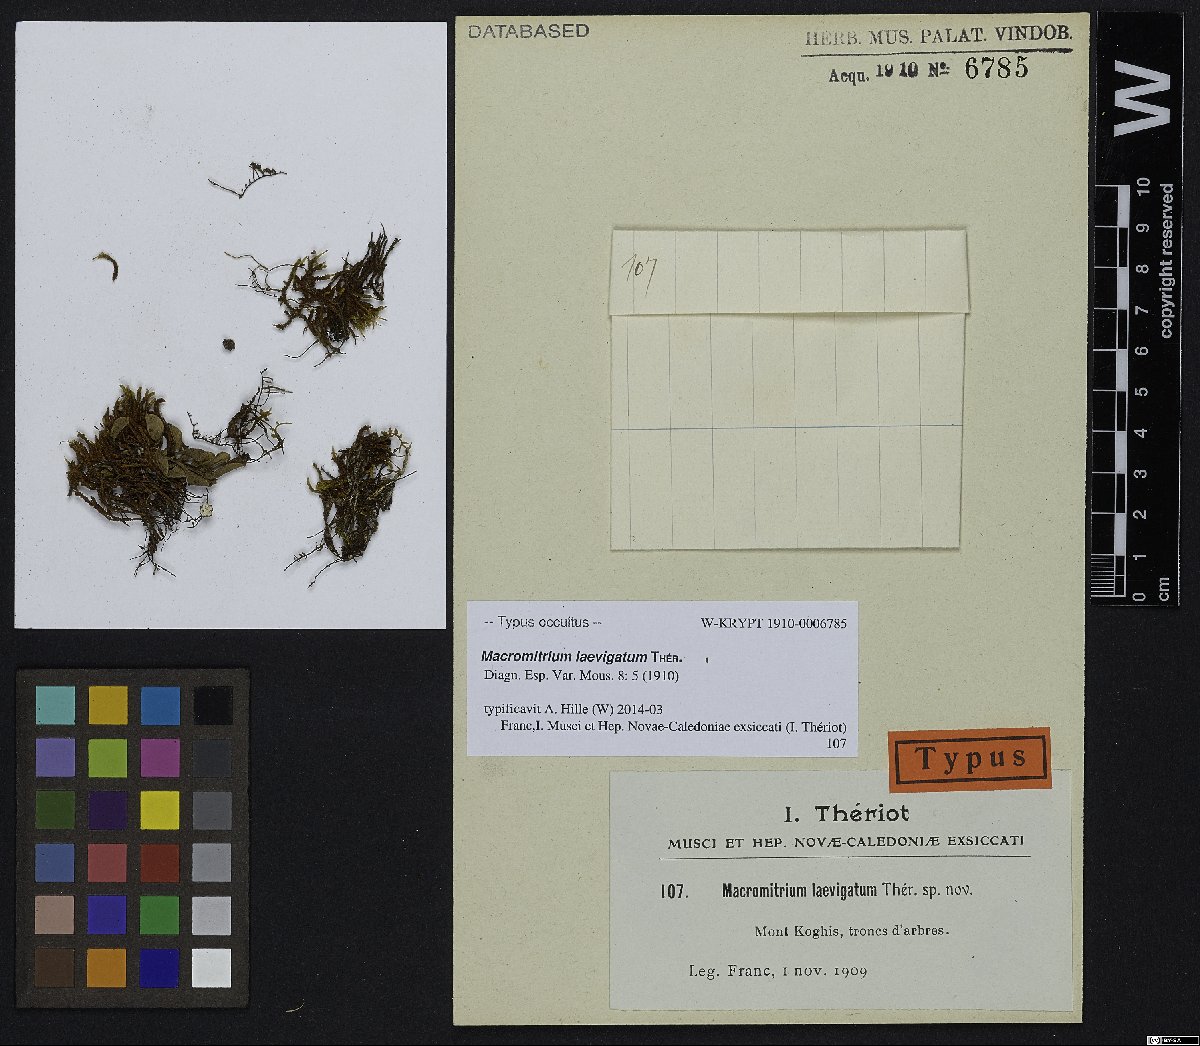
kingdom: Plantae
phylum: Bryophyta
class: Bryopsida
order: Orthotrichales
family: Orthotrichaceae
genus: Macromitrium
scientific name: Macromitrium laevigatum
